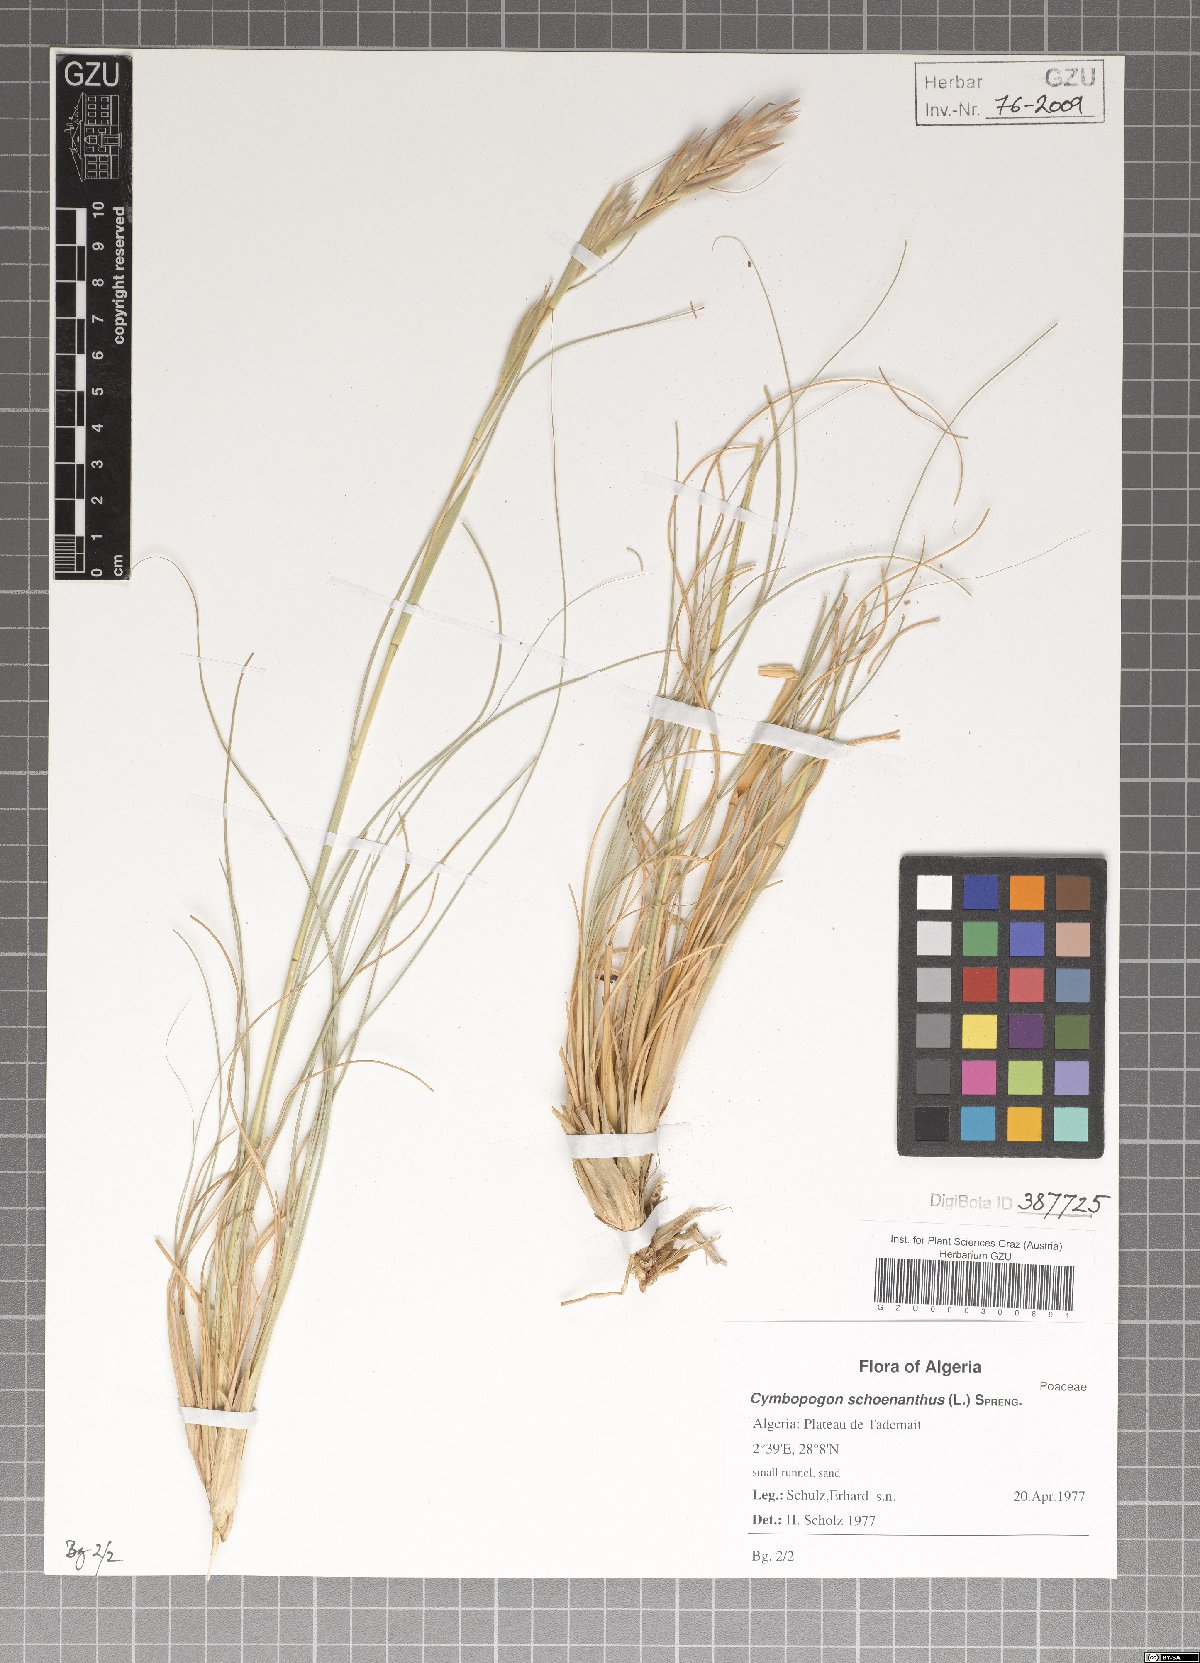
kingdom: Plantae
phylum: Tracheophyta
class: Liliopsida
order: Poales
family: Poaceae
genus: Cymbopogon
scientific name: Cymbopogon schoenanthus
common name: Geranium grass
